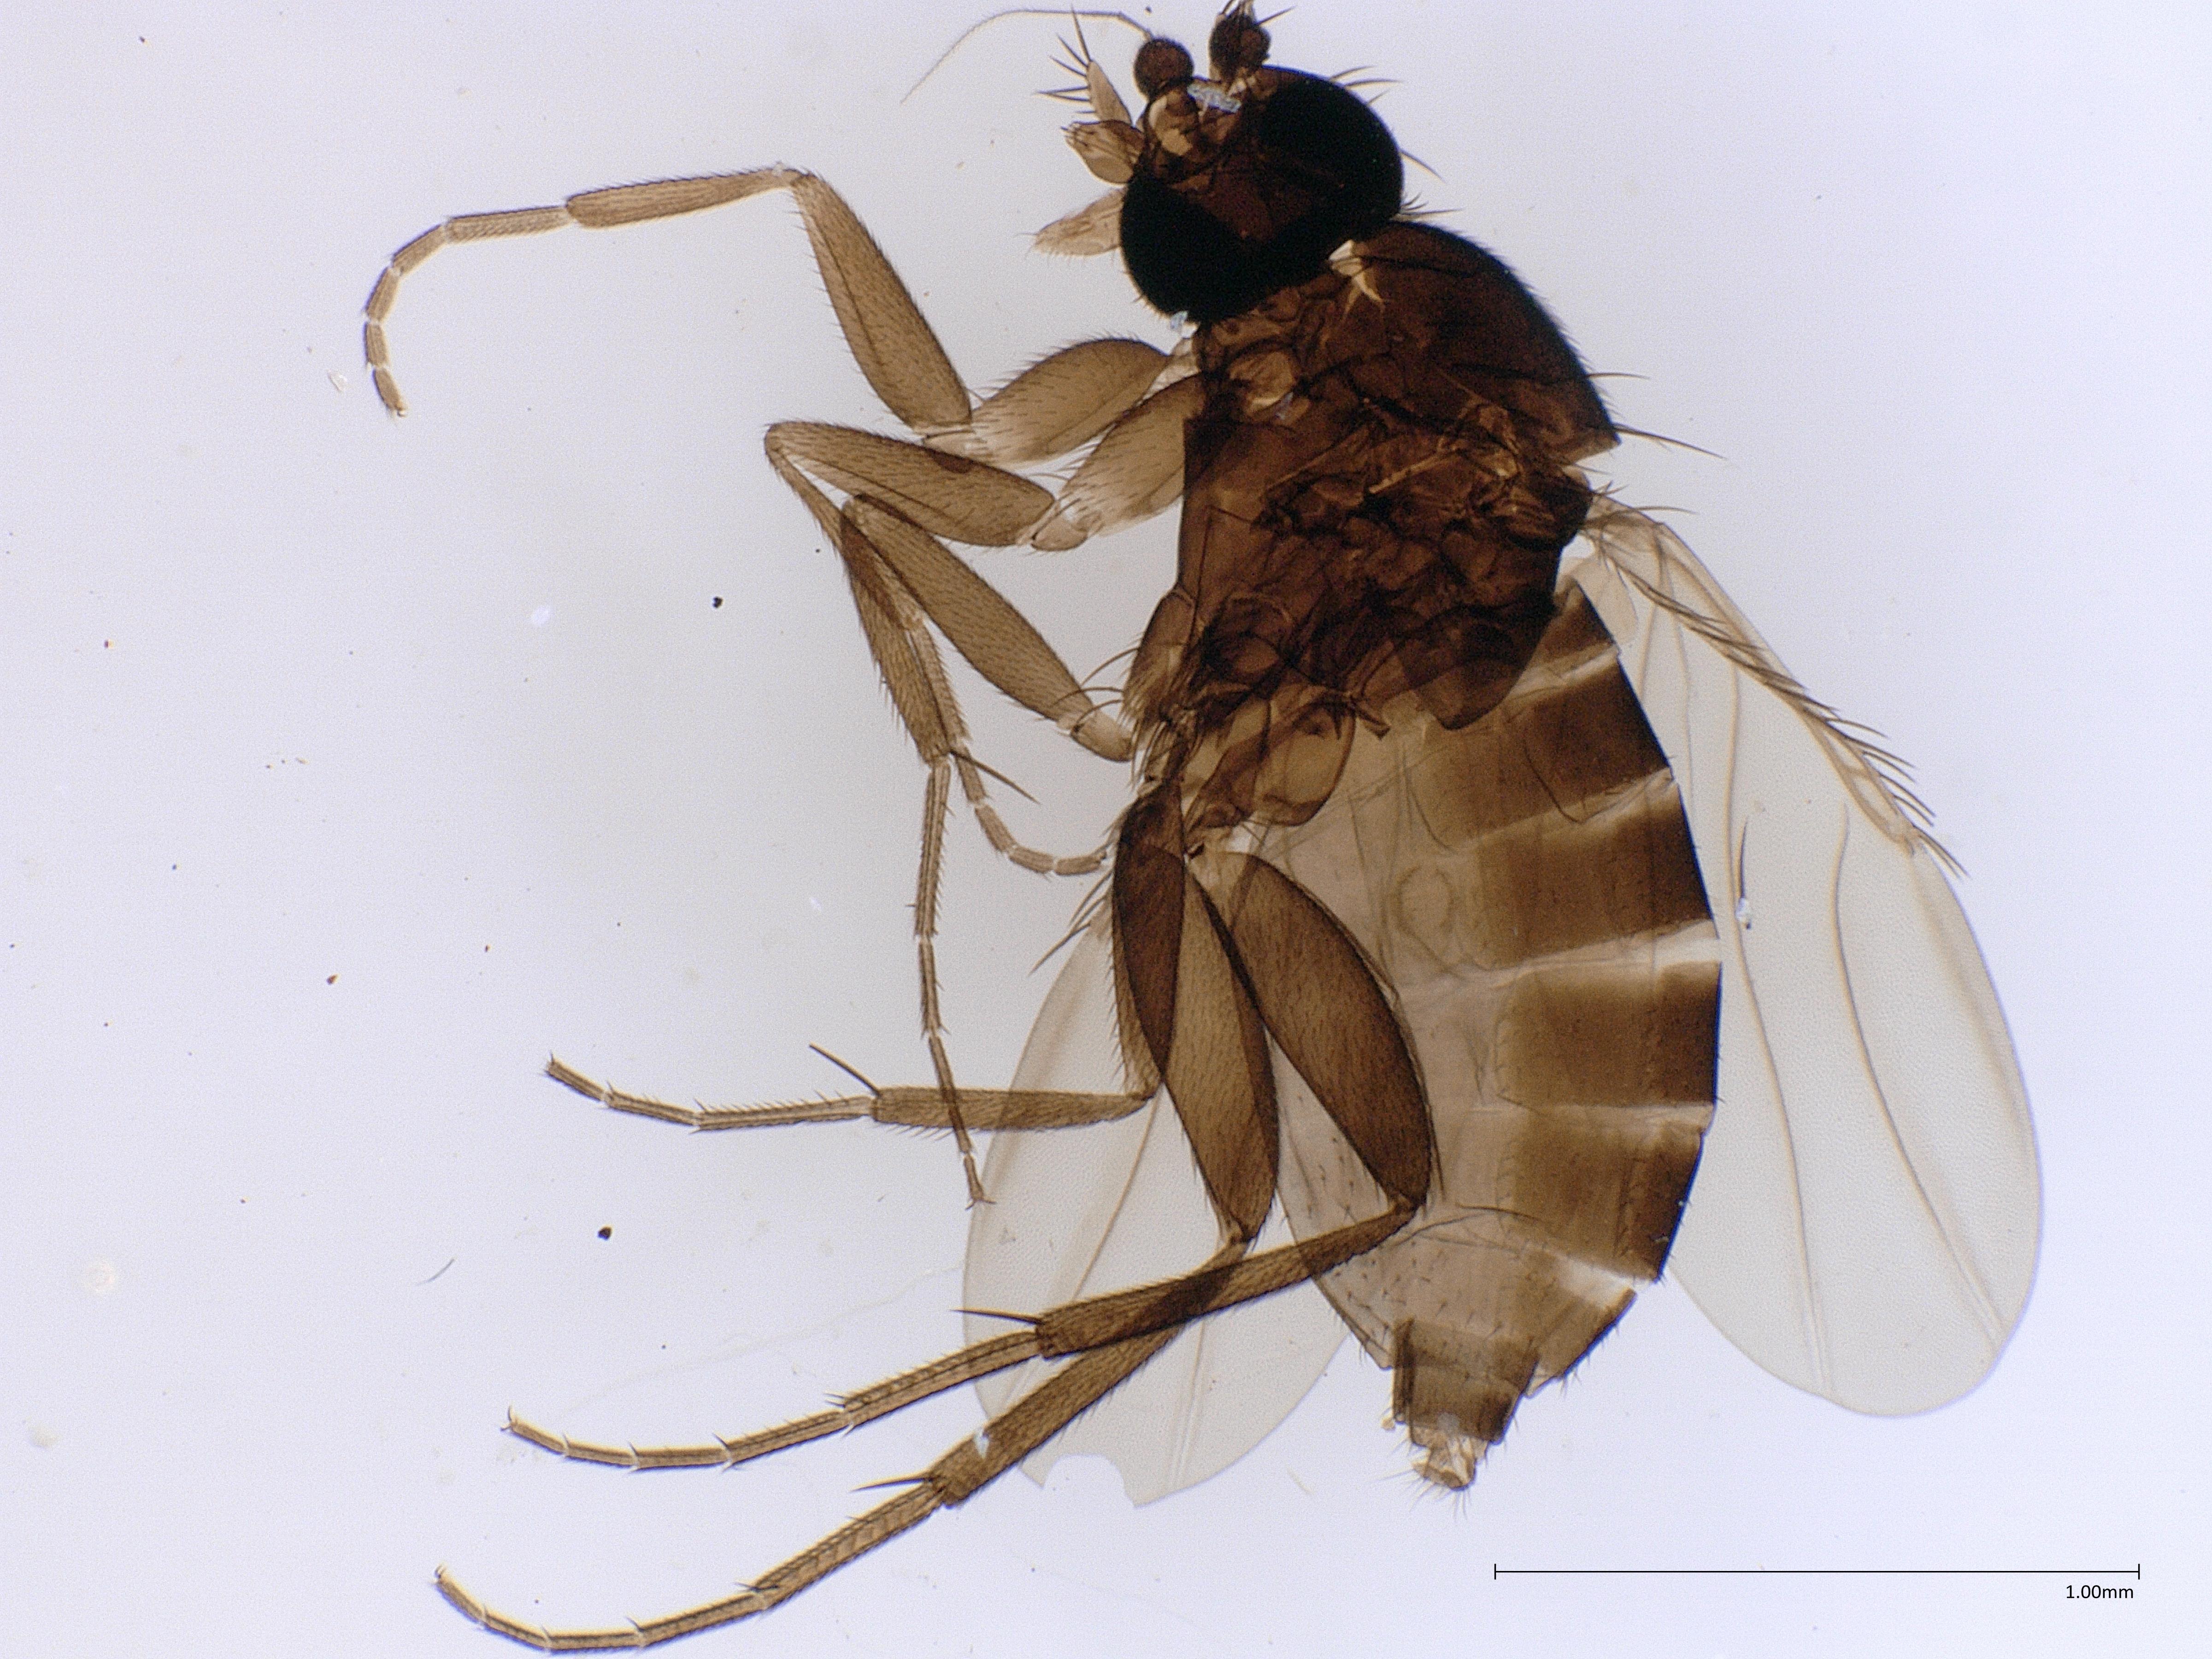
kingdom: Animalia
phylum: Arthropoda
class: Insecta
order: Diptera
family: Phoridae
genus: Megaselia
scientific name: Megaselia longicostalis
